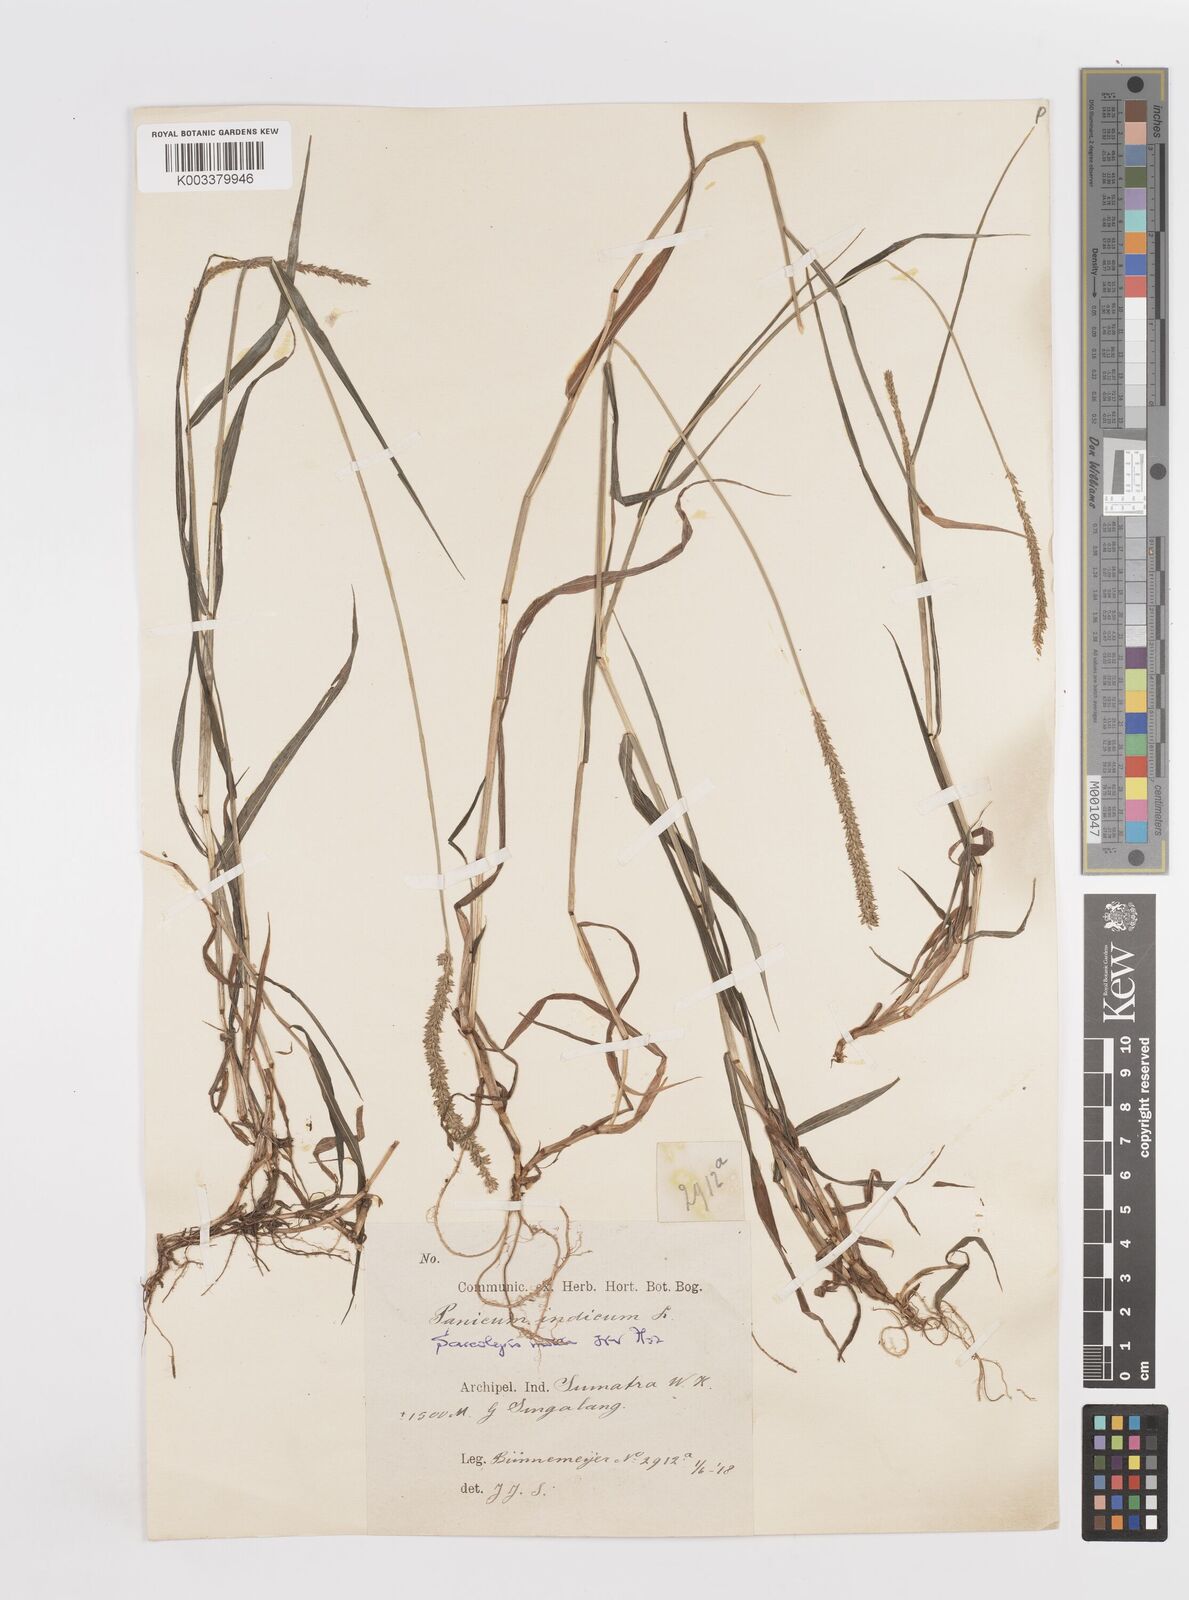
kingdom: Plantae
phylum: Tracheophyta
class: Liliopsida
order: Poales
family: Poaceae
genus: Sacciolepis
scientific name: Sacciolepis indica
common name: Glenwoodgrass
